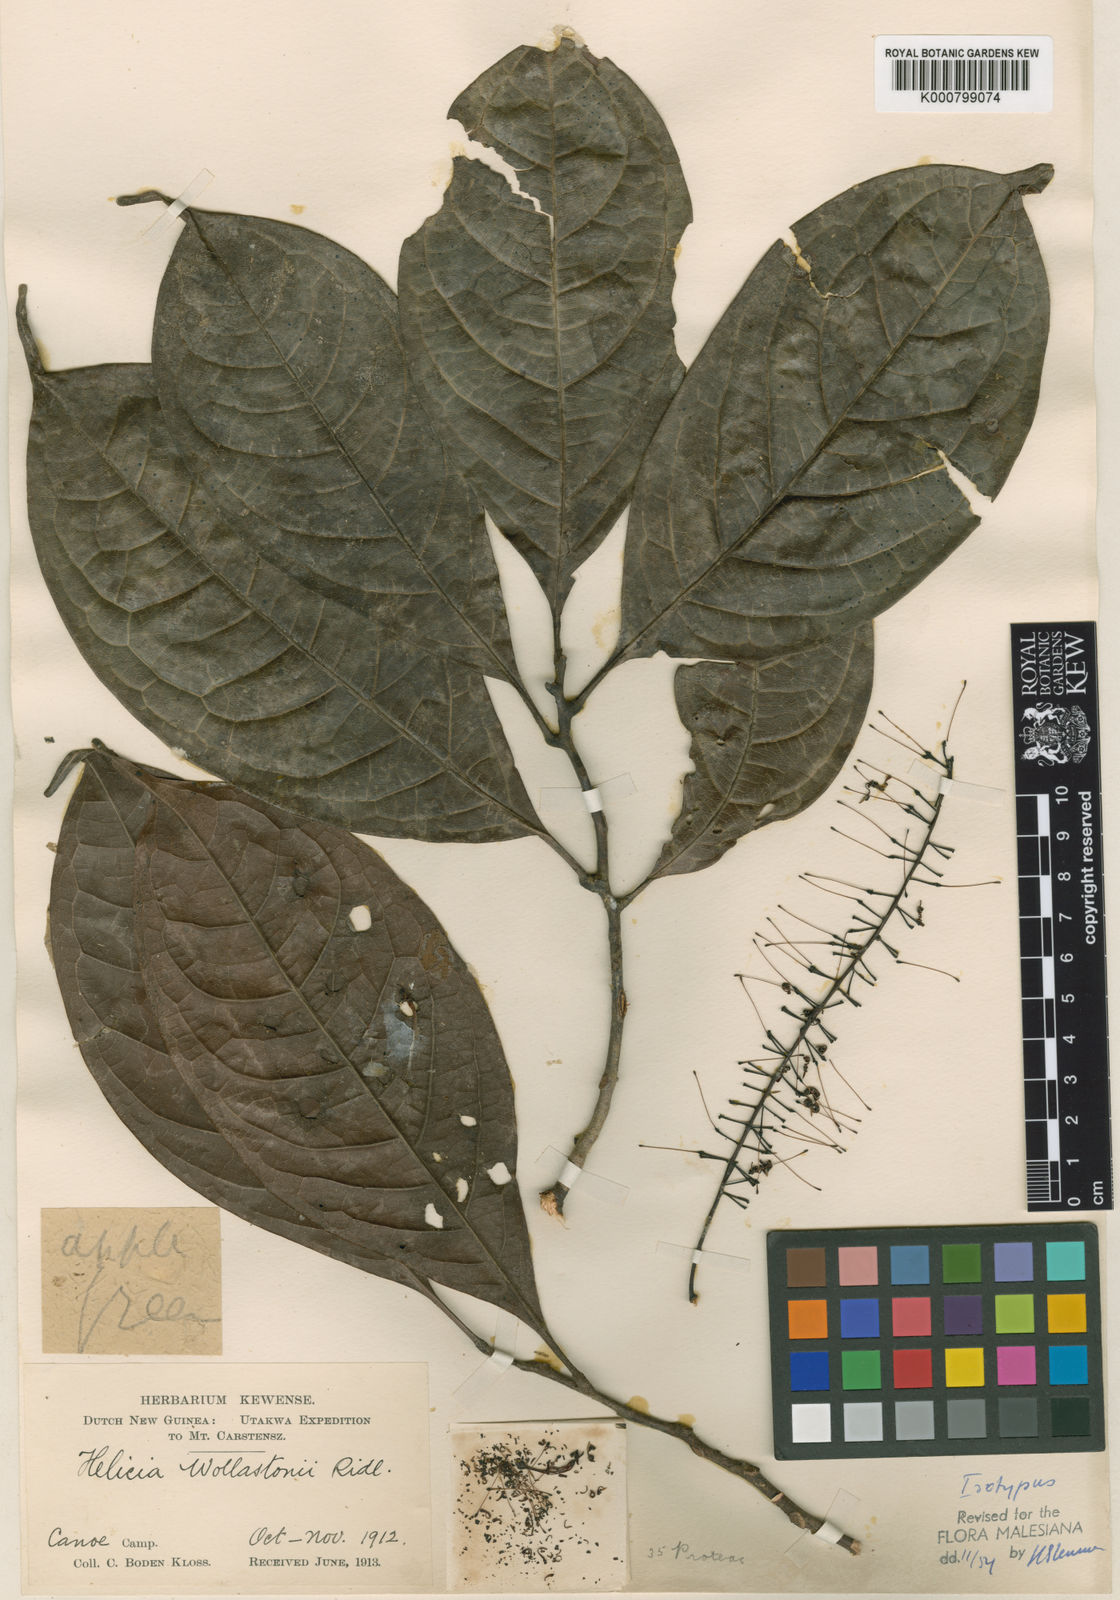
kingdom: Plantae
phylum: Tracheophyta
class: Magnoliopsida
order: Proteales
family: Proteaceae
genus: Helicia
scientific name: Helicia wollastonii
